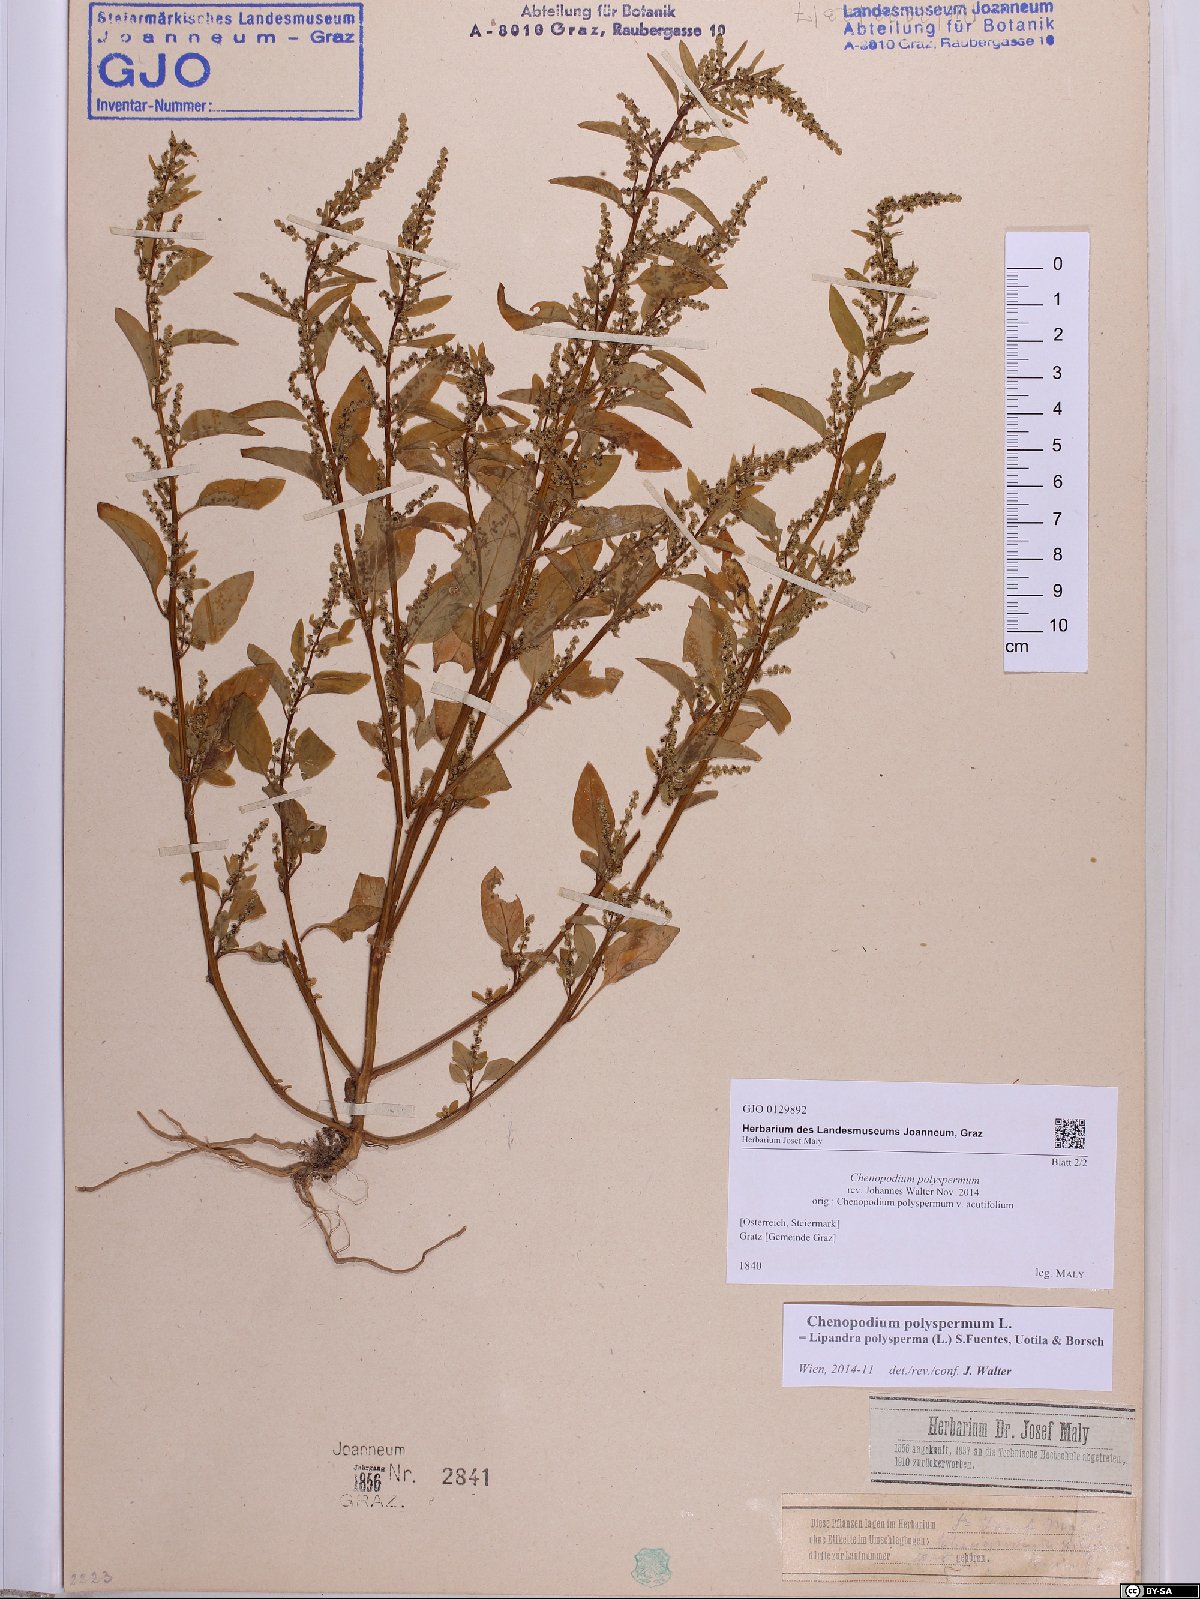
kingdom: Plantae
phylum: Tracheophyta
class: Magnoliopsida
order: Caryophyllales
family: Amaranthaceae
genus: Lipandra
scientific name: Lipandra polysperma
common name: Many-seed goosefoot
